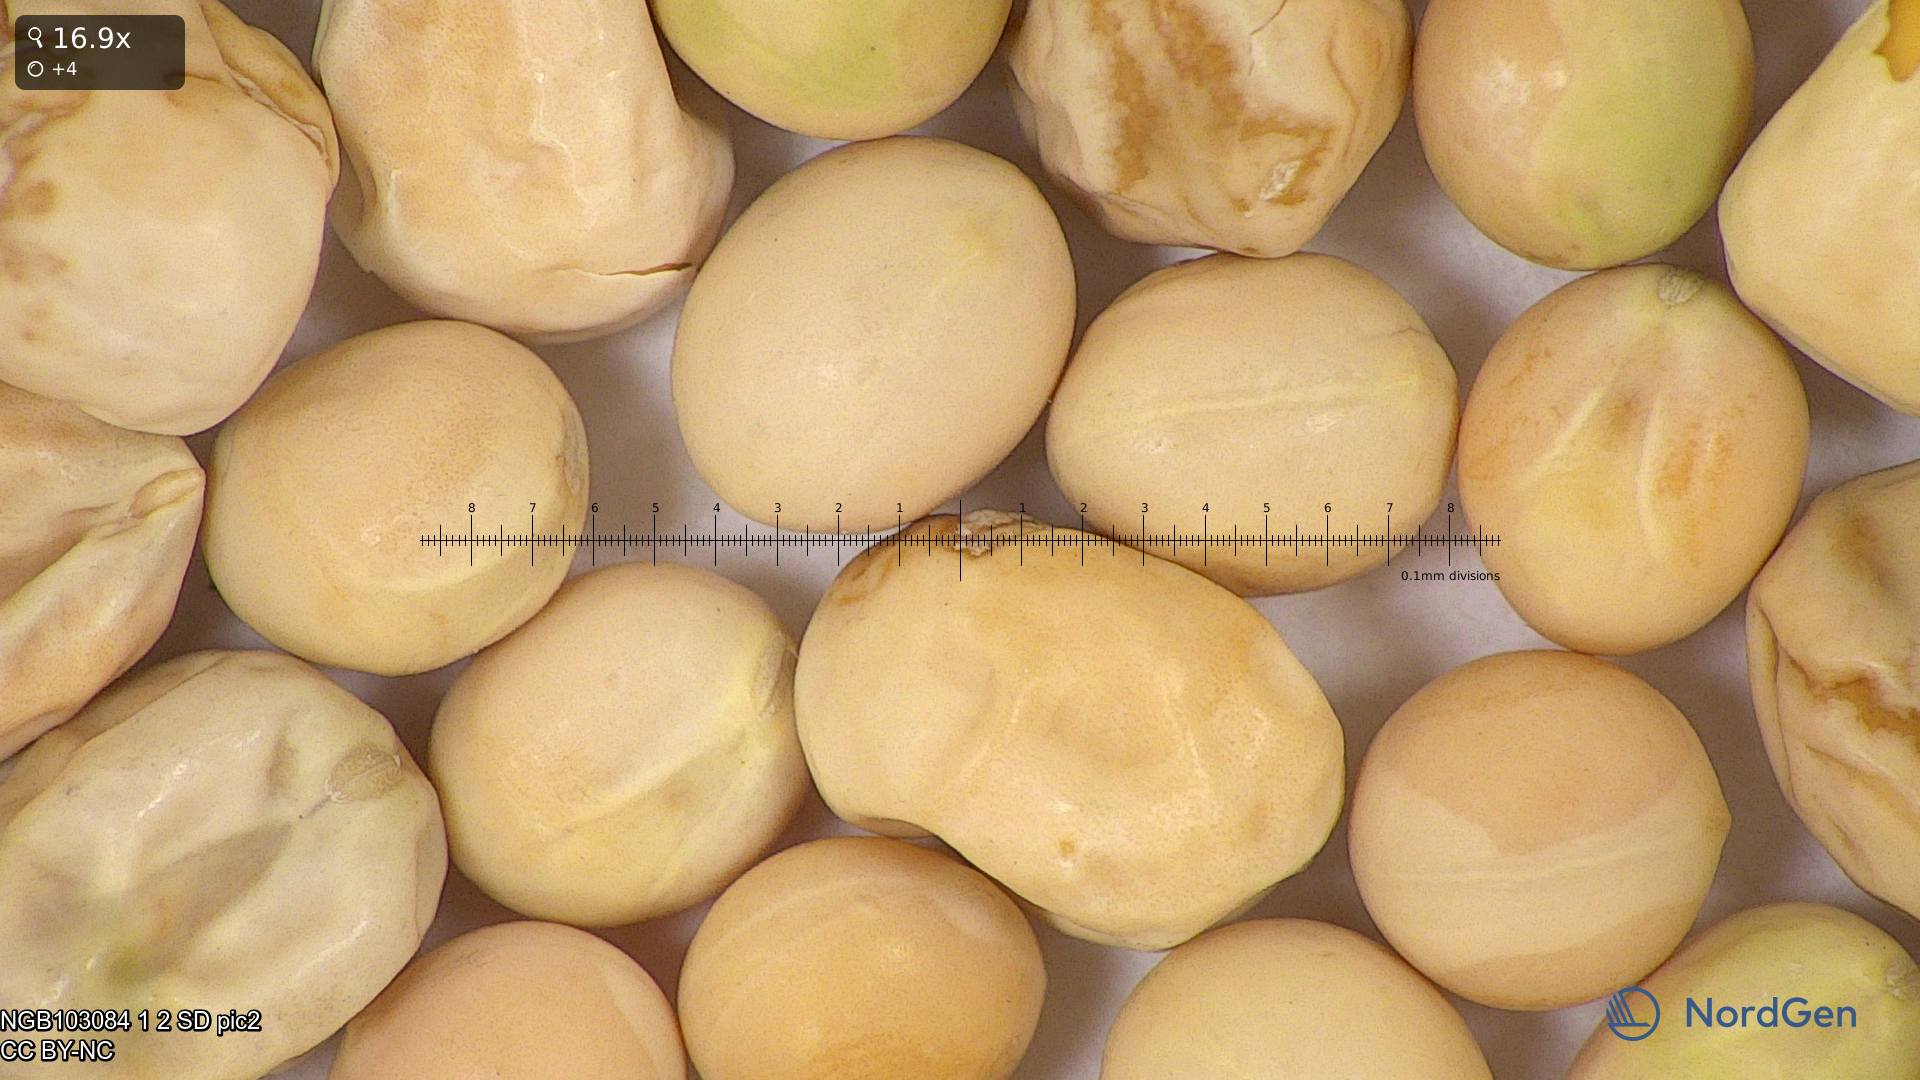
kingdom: Plantae
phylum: Tracheophyta
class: Magnoliopsida
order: Fabales
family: Fabaceae
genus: Lathyrus
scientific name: Lathyrus oleraceus
